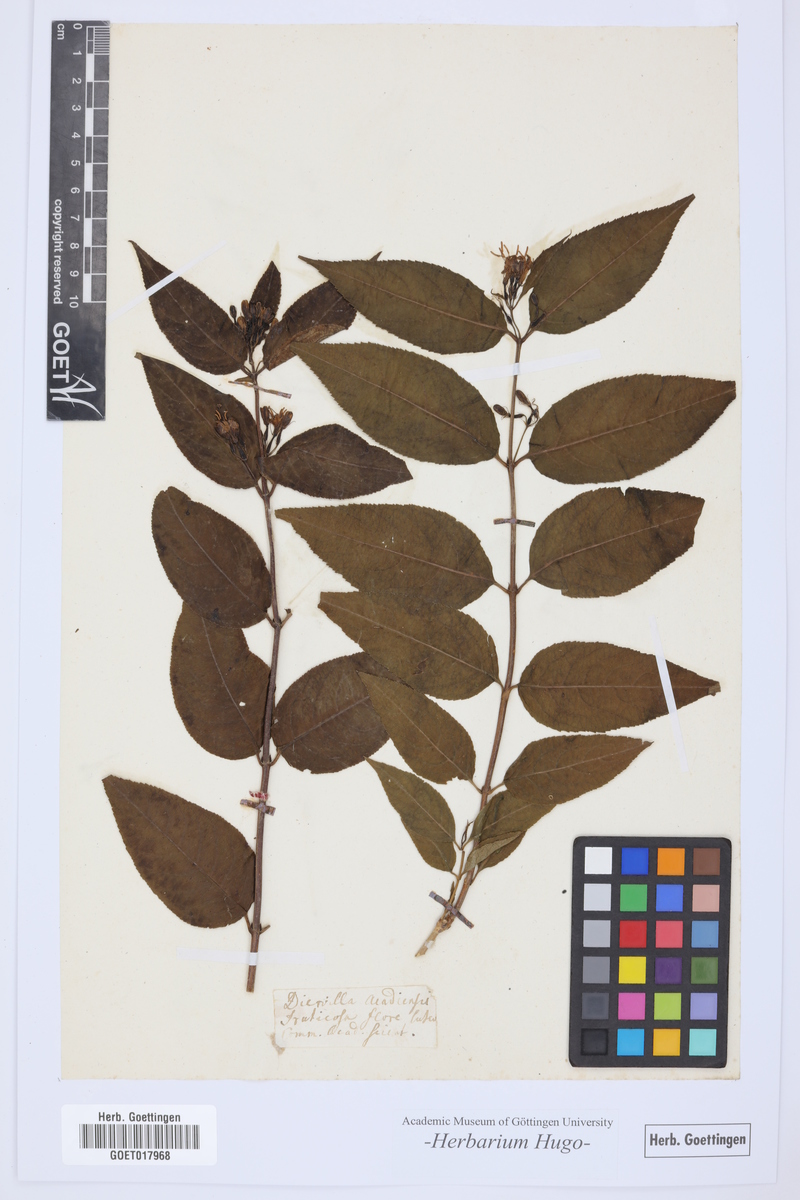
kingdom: Plantae
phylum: Tracheophyta
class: Magnoliopsida
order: Dipsacales
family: Caprifoliaceae
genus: Diervilla
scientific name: Diervilla lonicera
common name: Bush-honeysuckle
